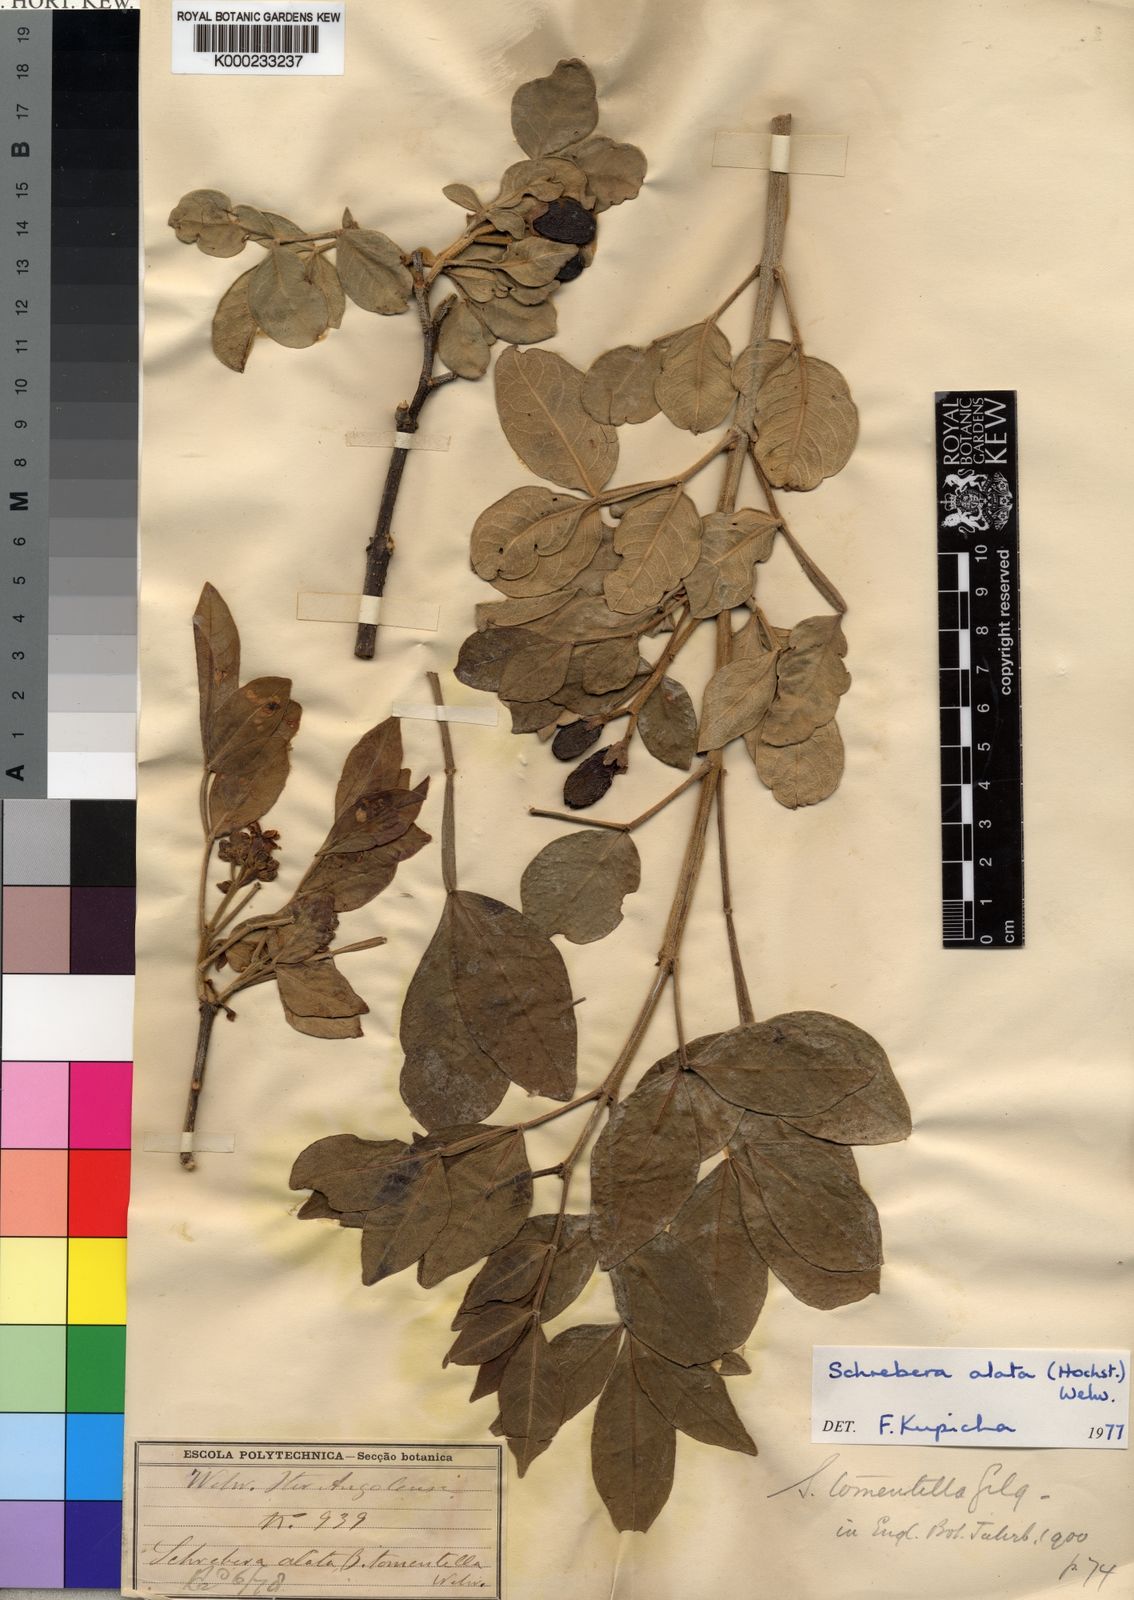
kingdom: Plantae
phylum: Tracheophyta
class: Magnoliopsida
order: Lamiales
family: Oleaceae
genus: Schrebera
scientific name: Schrebera alata
